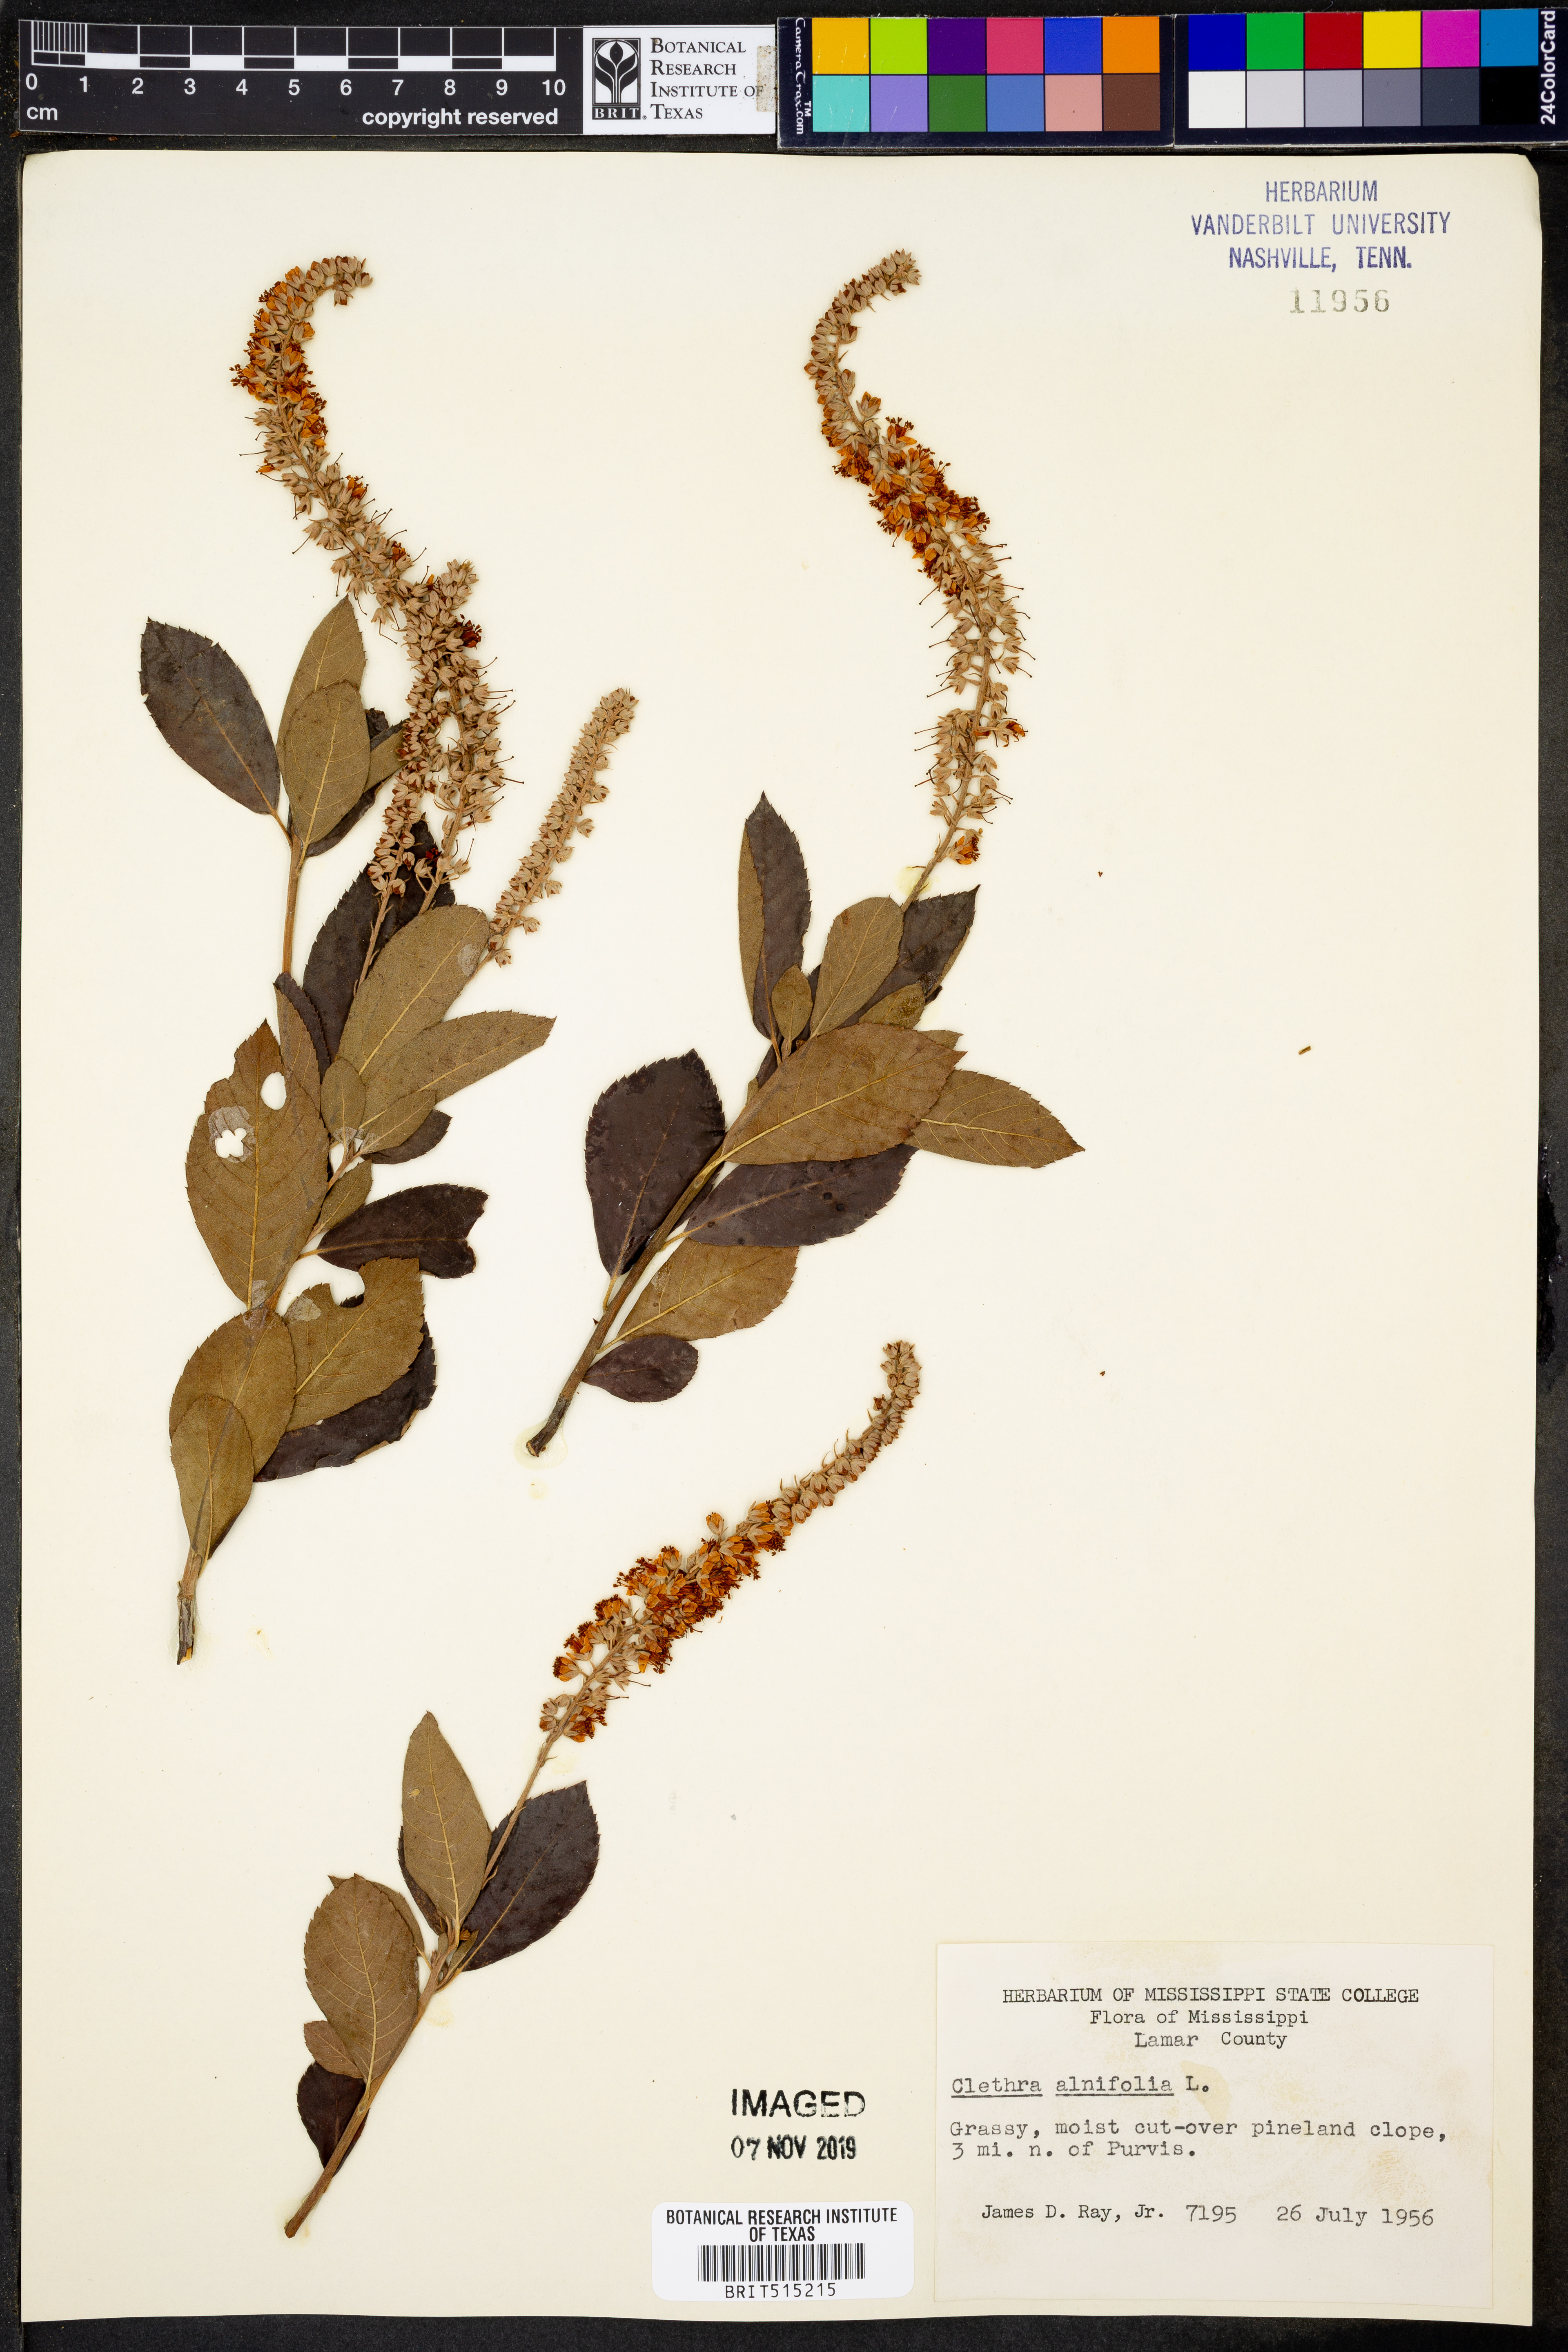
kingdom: Plantae
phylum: Tracheophyta
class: Magnoliopsida
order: Ericales
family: Clethraceae
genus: Clethra
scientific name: Clethra alnifolia
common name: Sweet pepperbush
